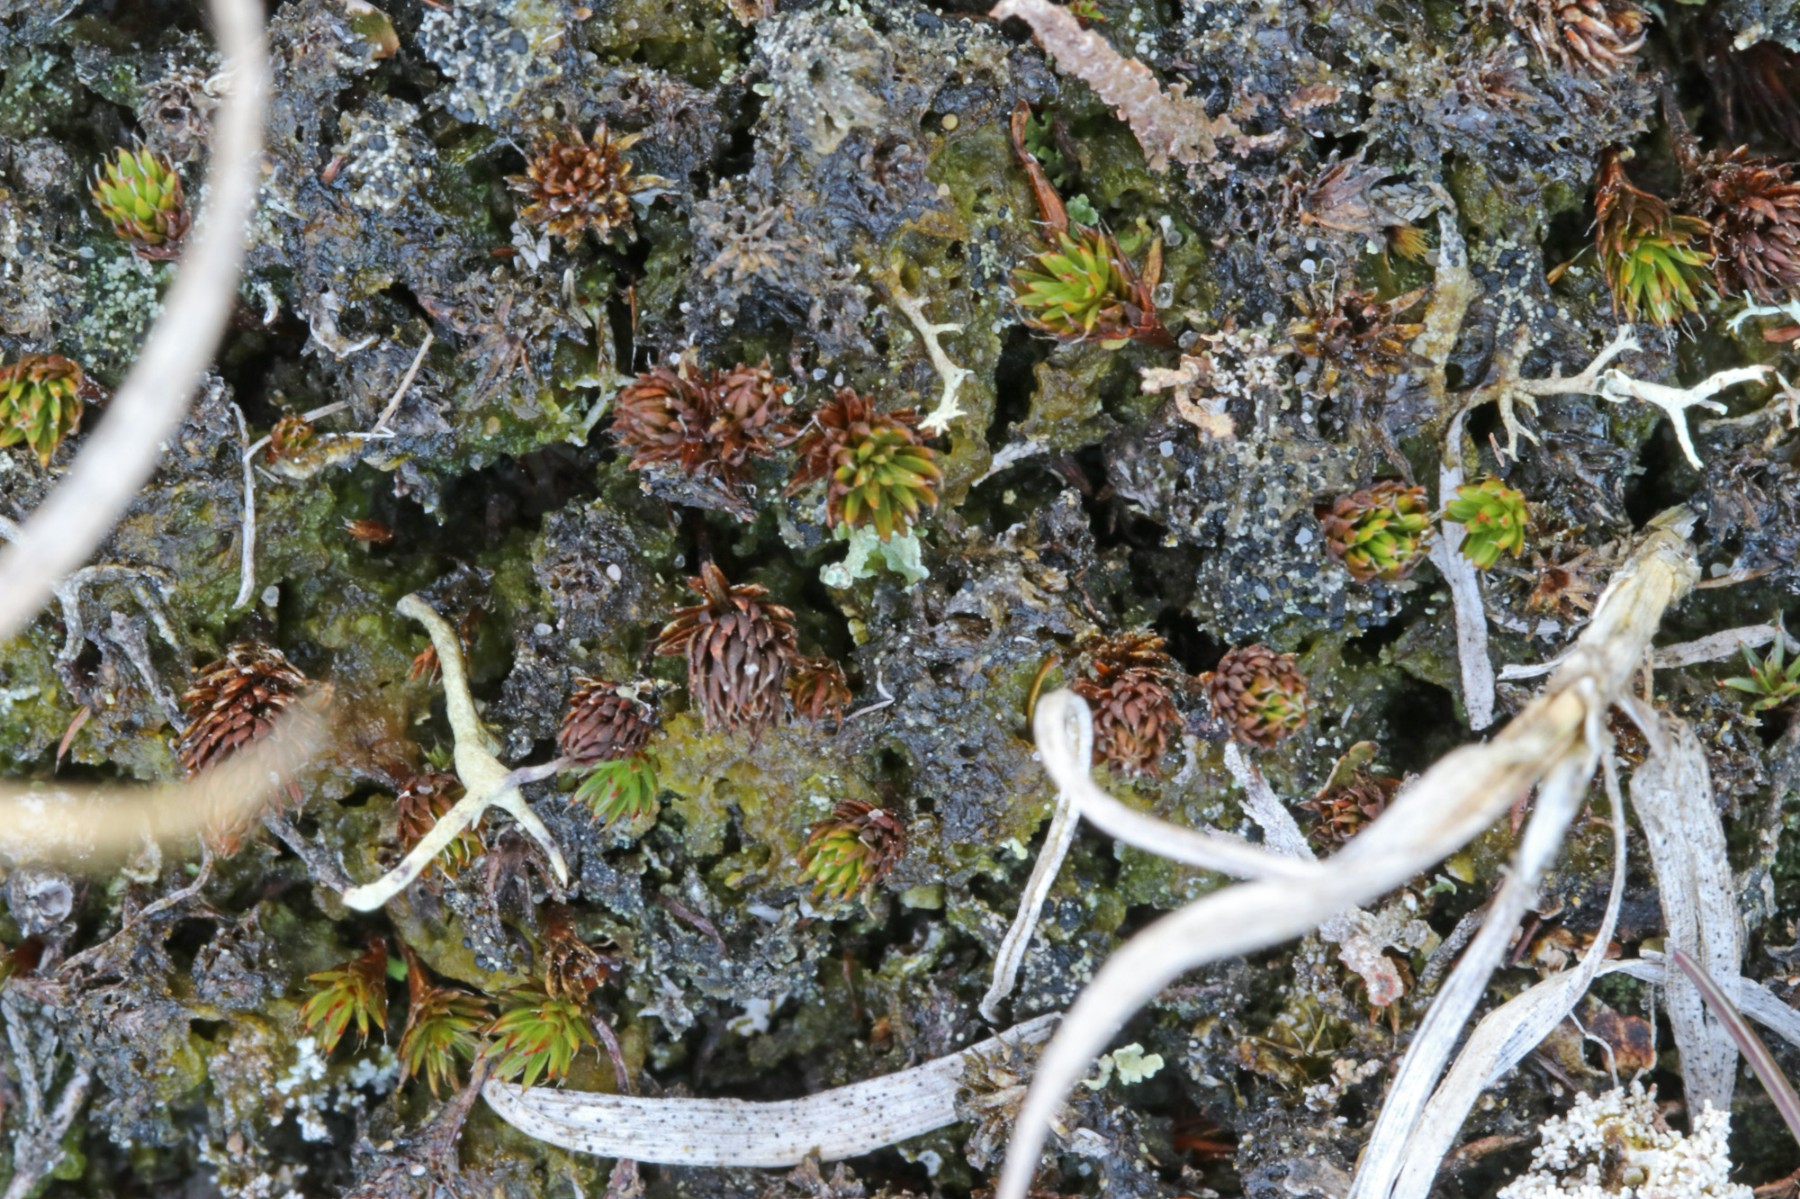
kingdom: Fungi
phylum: Ascomycota
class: Lecanoromycetes
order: Lecanorales
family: Byssolomataceae
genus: Micarea
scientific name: Micarea lignaria
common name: tørve-knaplav
